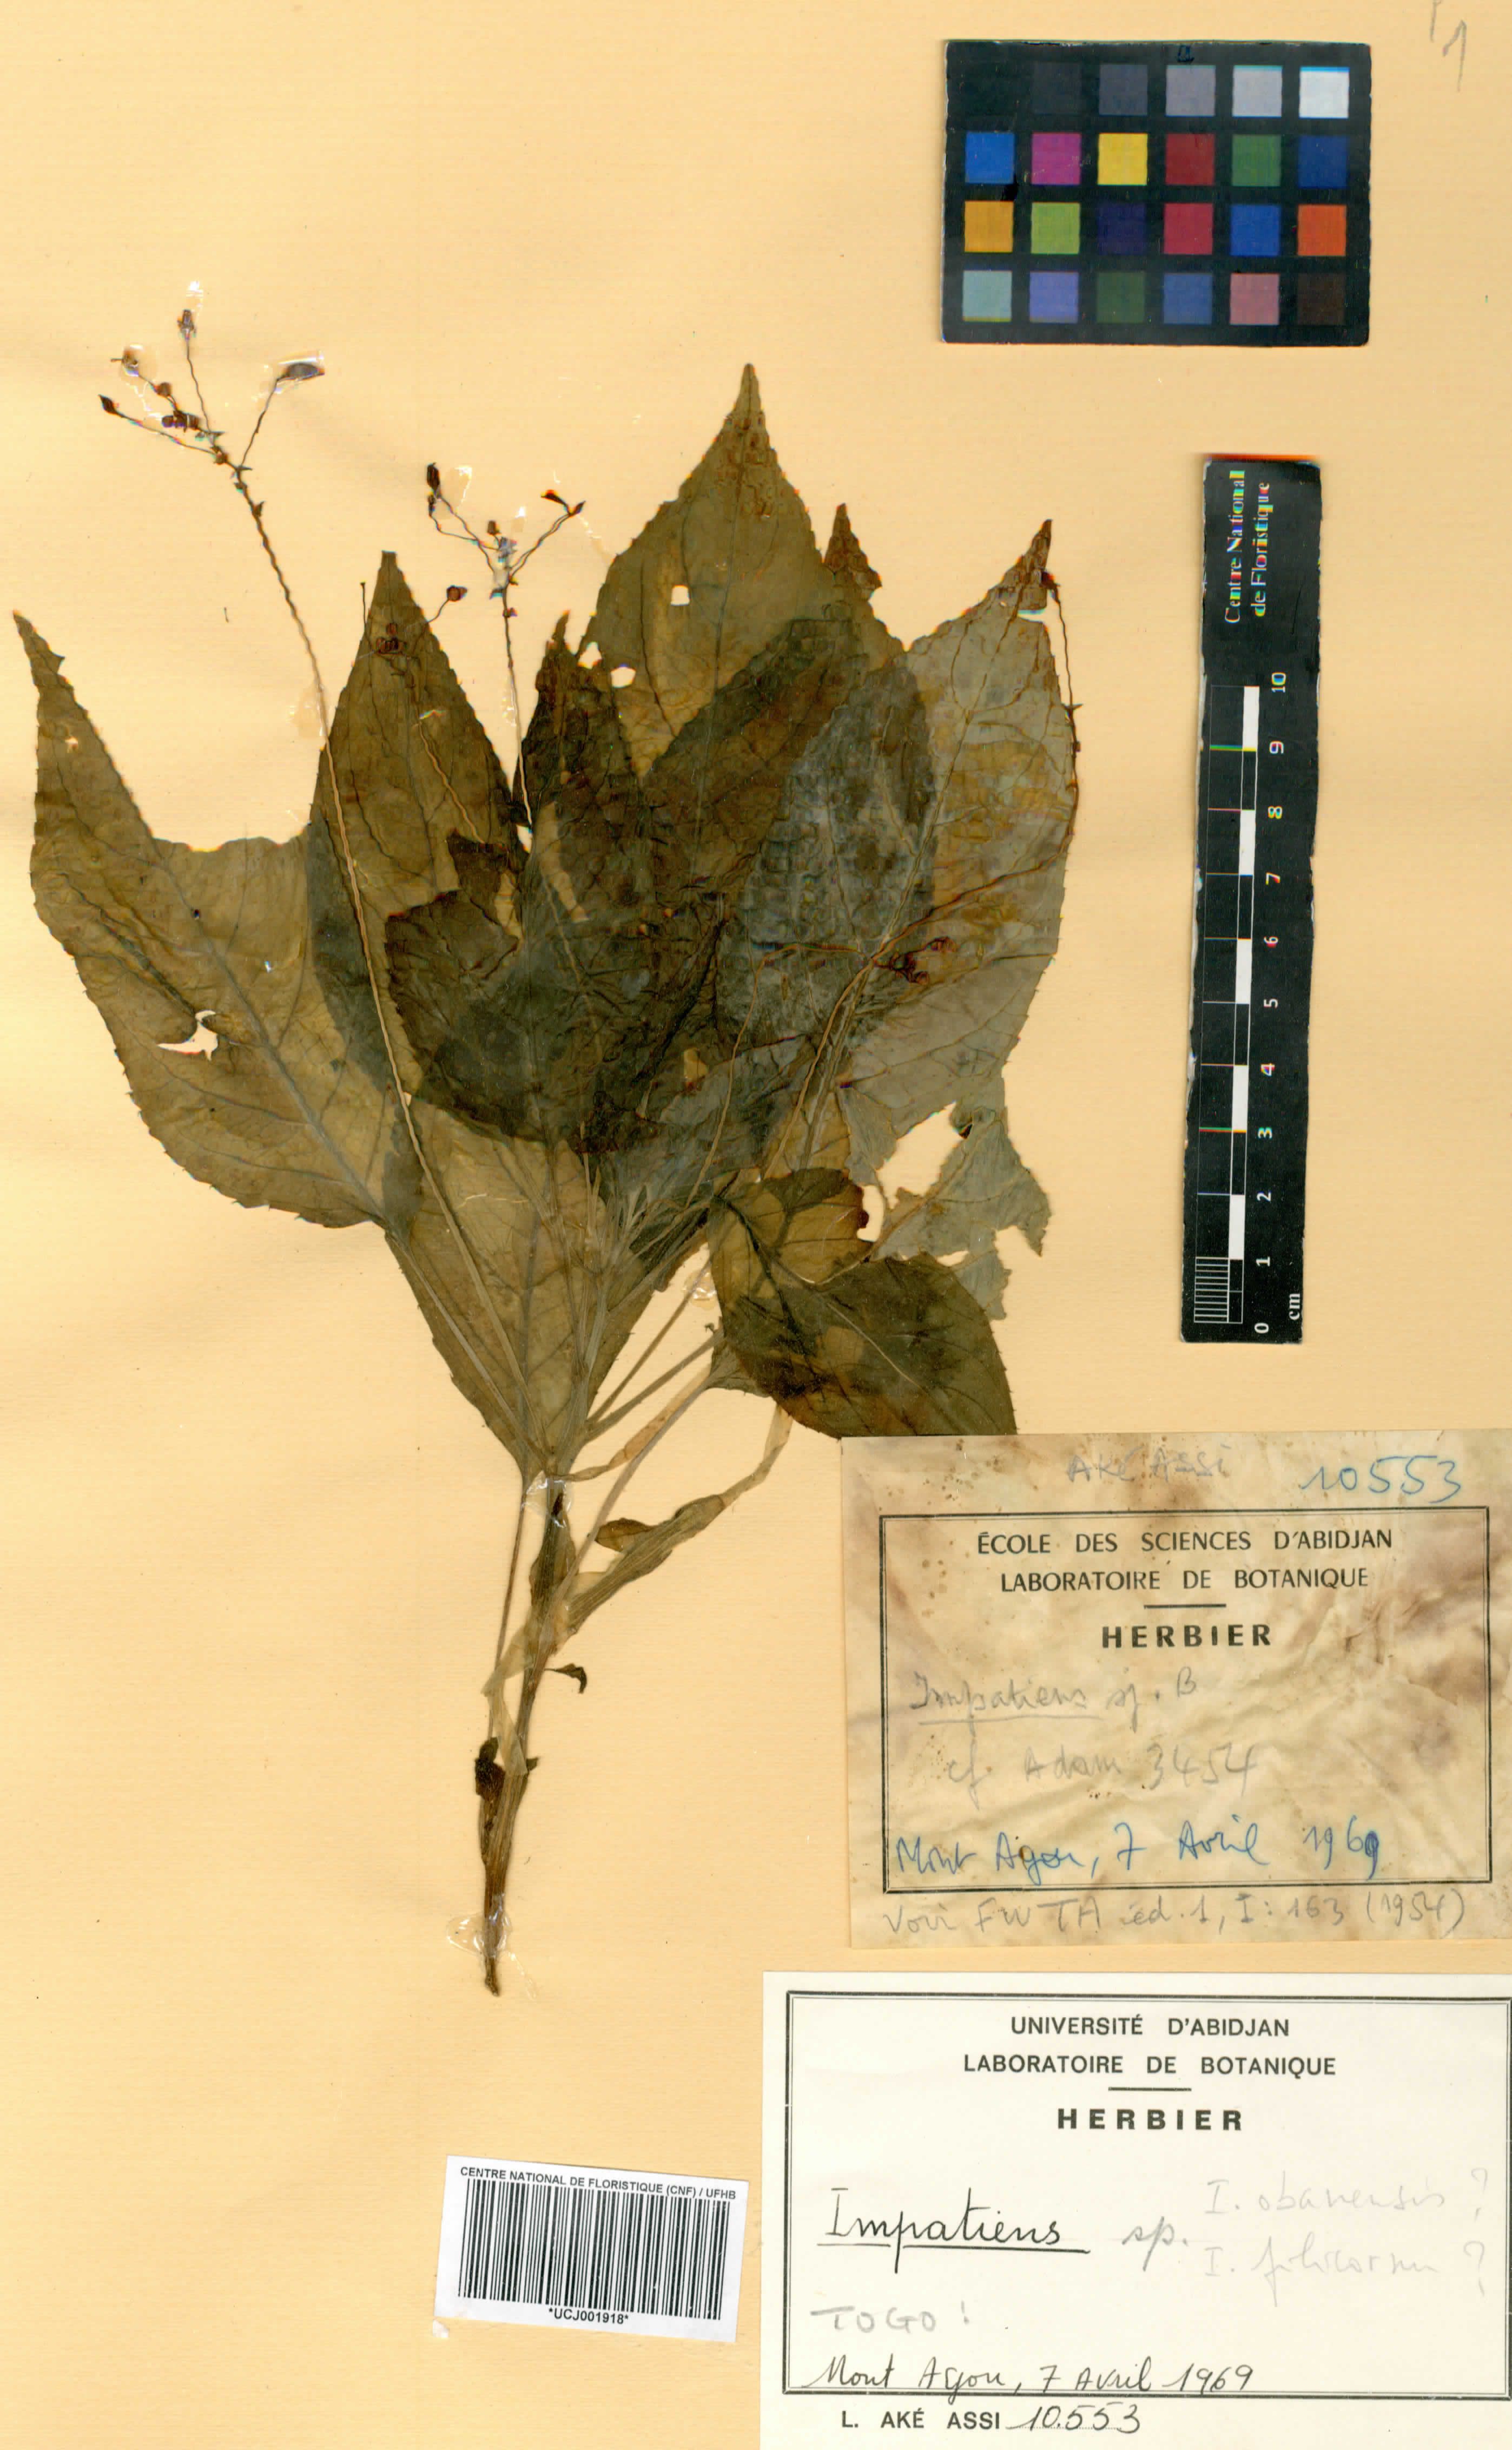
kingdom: Plantae
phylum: Tracheophyta
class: Magnoliopsida
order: Ericales
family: Balsaminaceae
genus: Impatiens
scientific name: Impatiens
